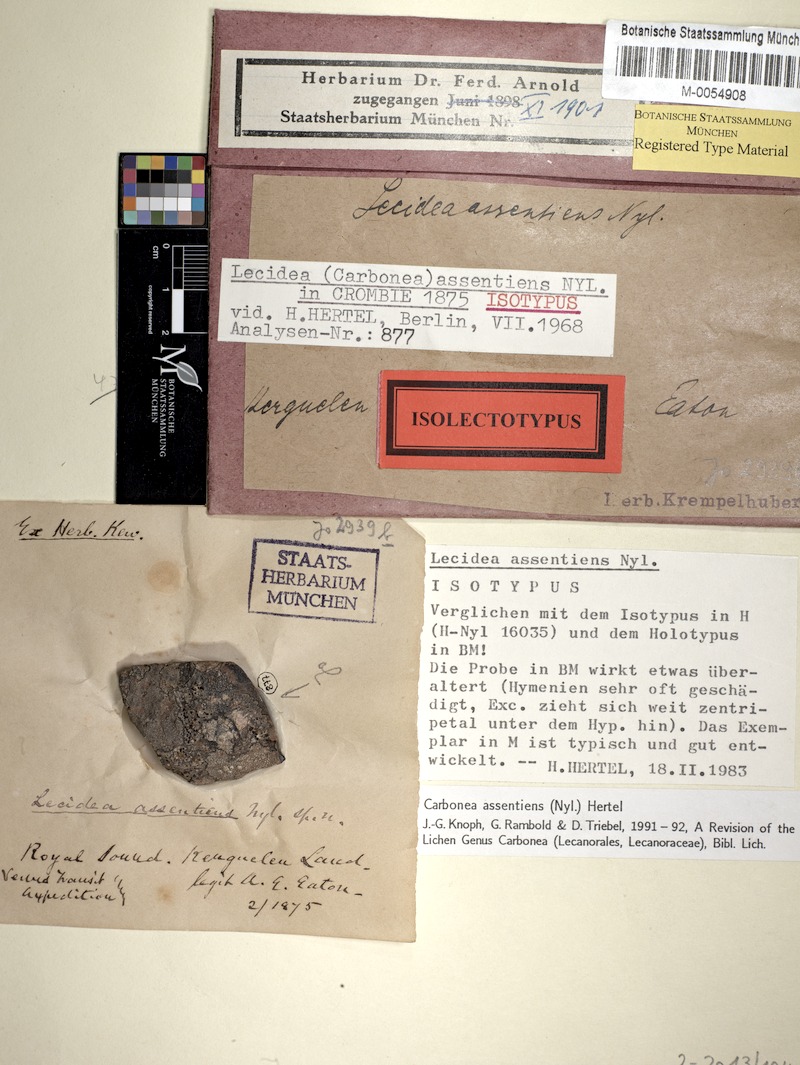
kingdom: Fungi
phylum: Ascomycota
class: Lecanoromycetes
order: Lecanorales
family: Lecanoraceae
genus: Carbonea
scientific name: Carbonea assentiens
